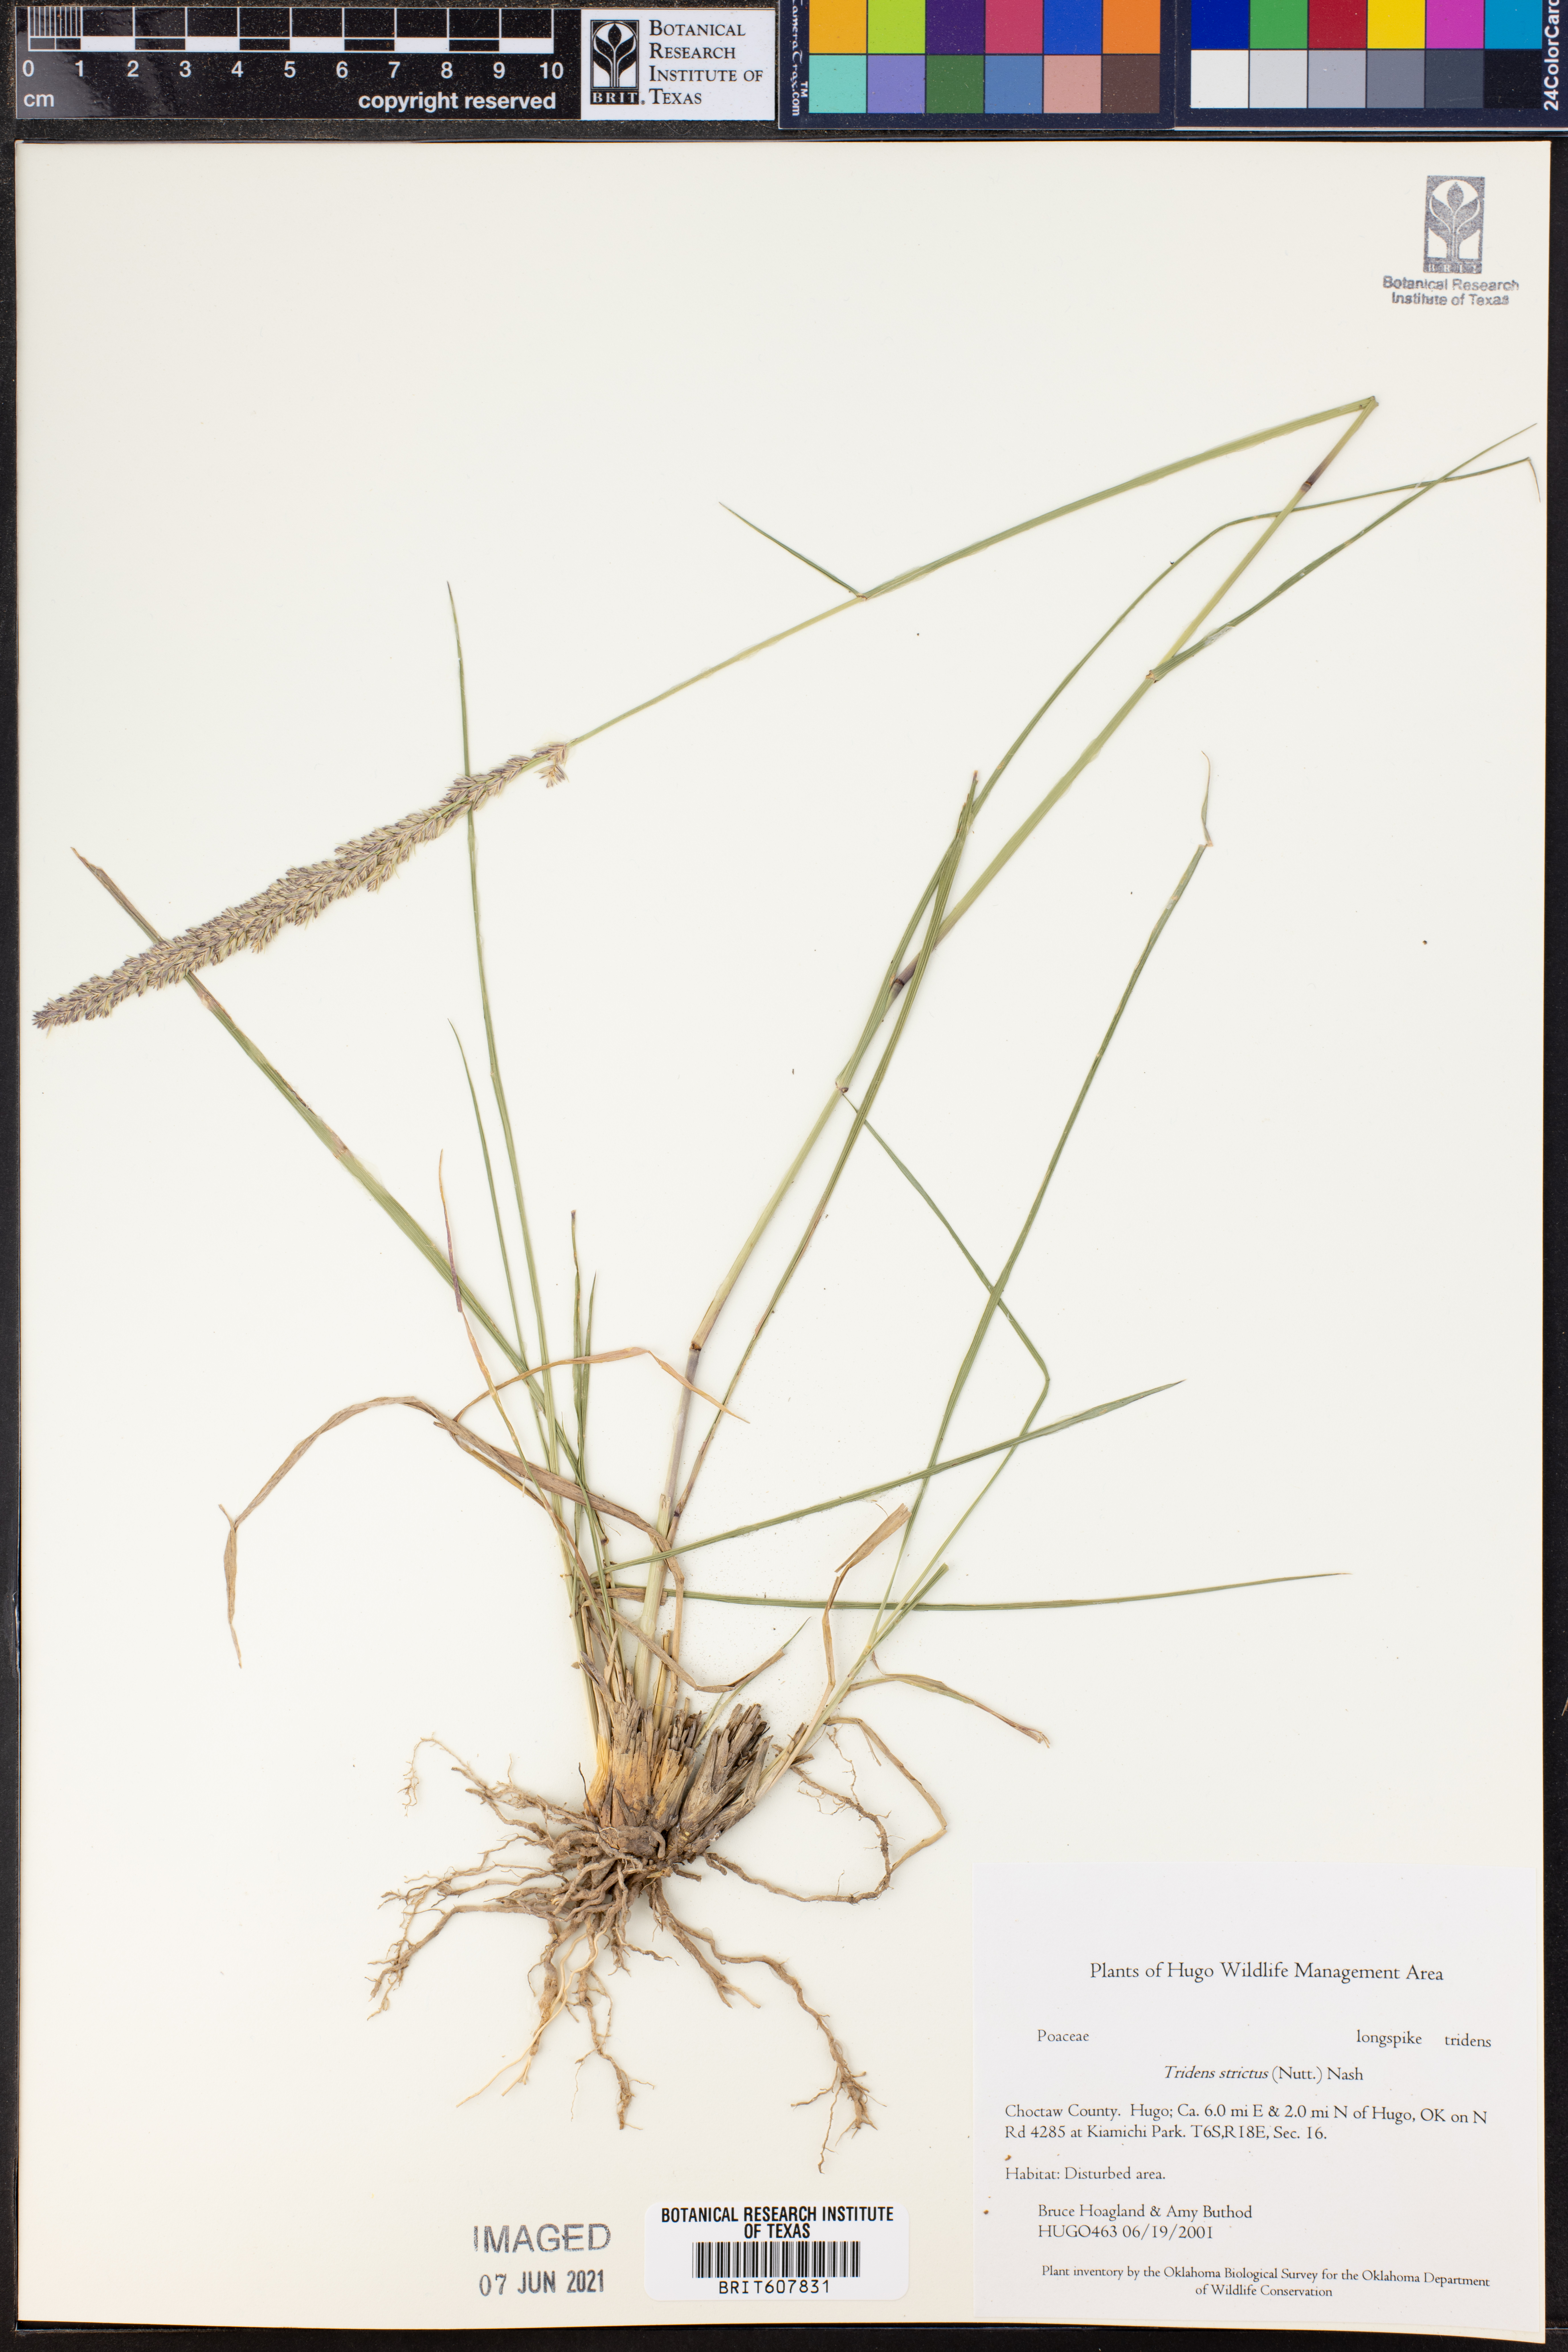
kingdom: Plantae
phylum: Tracheophyta
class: Liliopsida
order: Poales
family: Poaceae
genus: Tridens
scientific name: Tridens strictus
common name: Long-spike tridens
